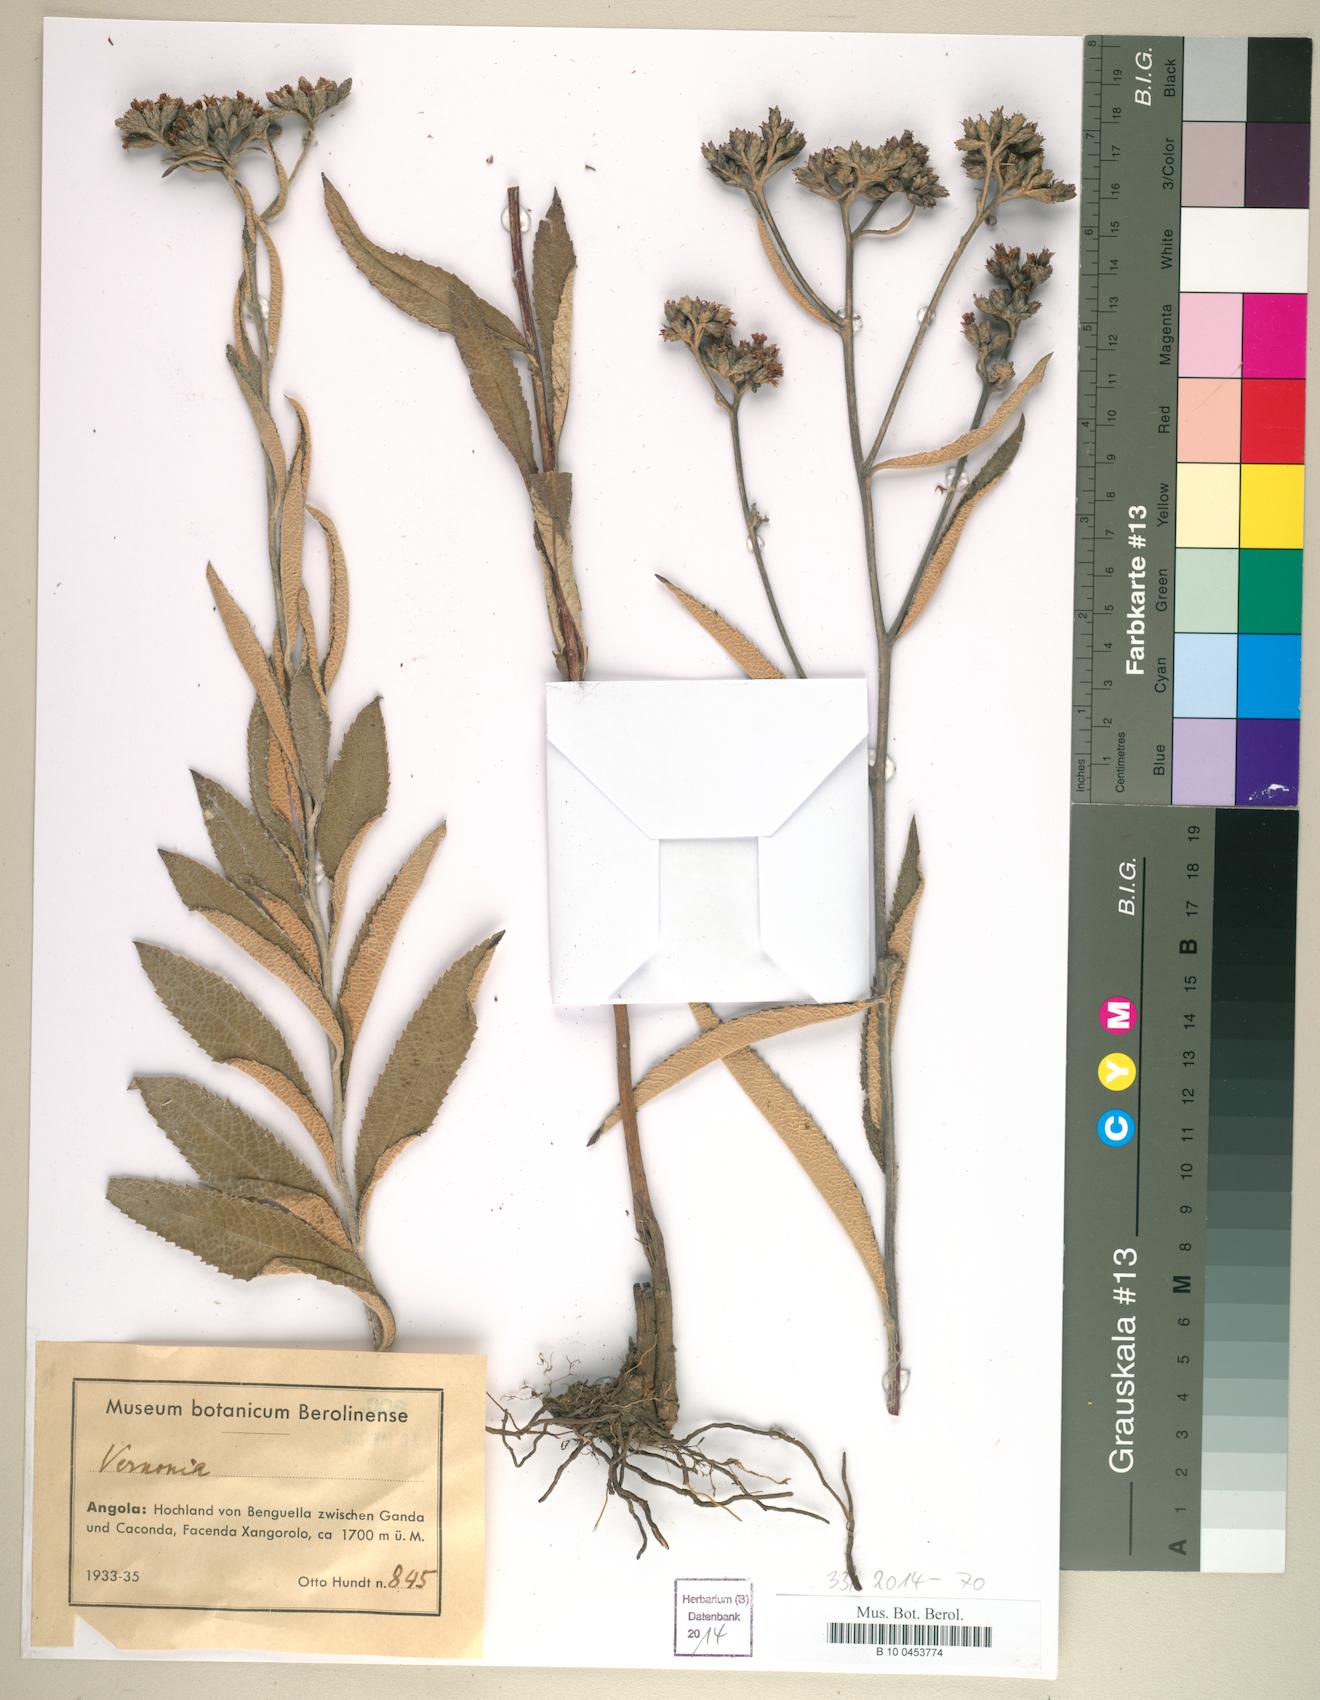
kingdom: Plantae
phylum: Tracheophyta
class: Magnoliopsida
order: Asterales
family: Asteraceae
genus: Vernonia
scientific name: Vernonia
